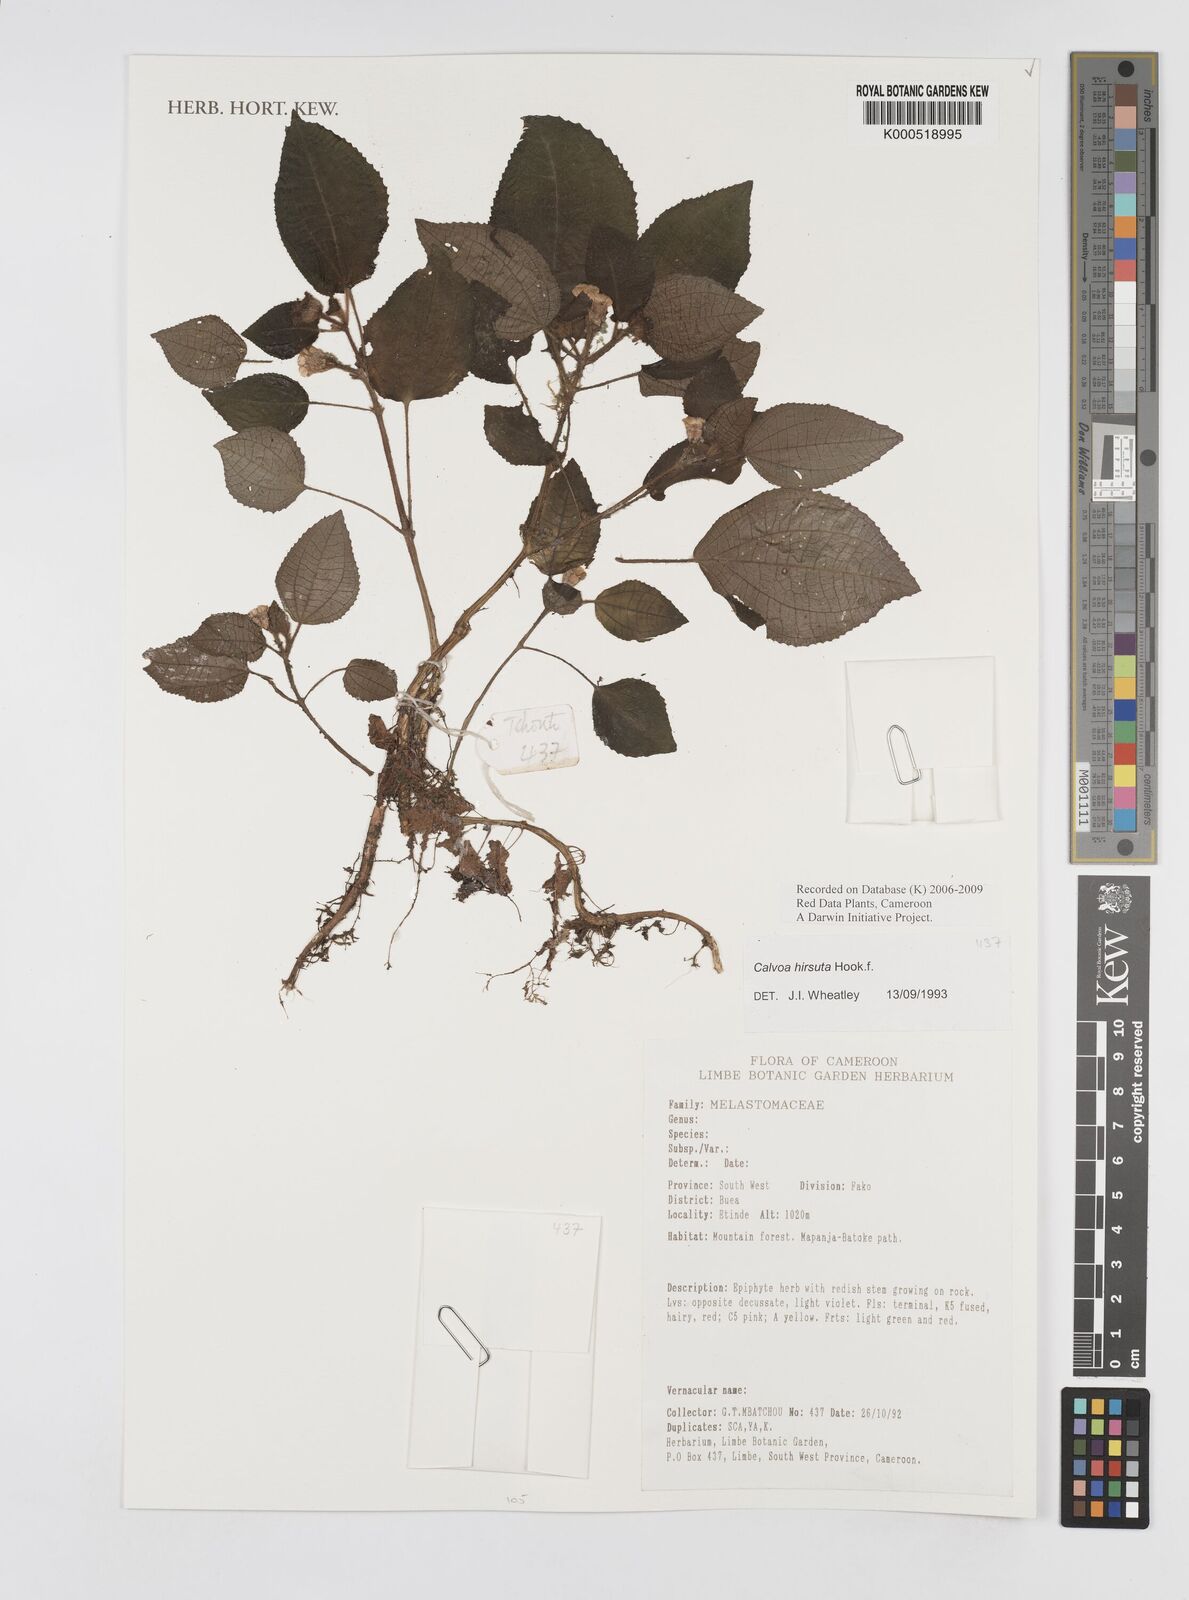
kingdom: Plantae
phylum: Tracheophyta
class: Magnoliopsida
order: Myrtales
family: Melastomataceae
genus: Calvoa
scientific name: Calvoa
